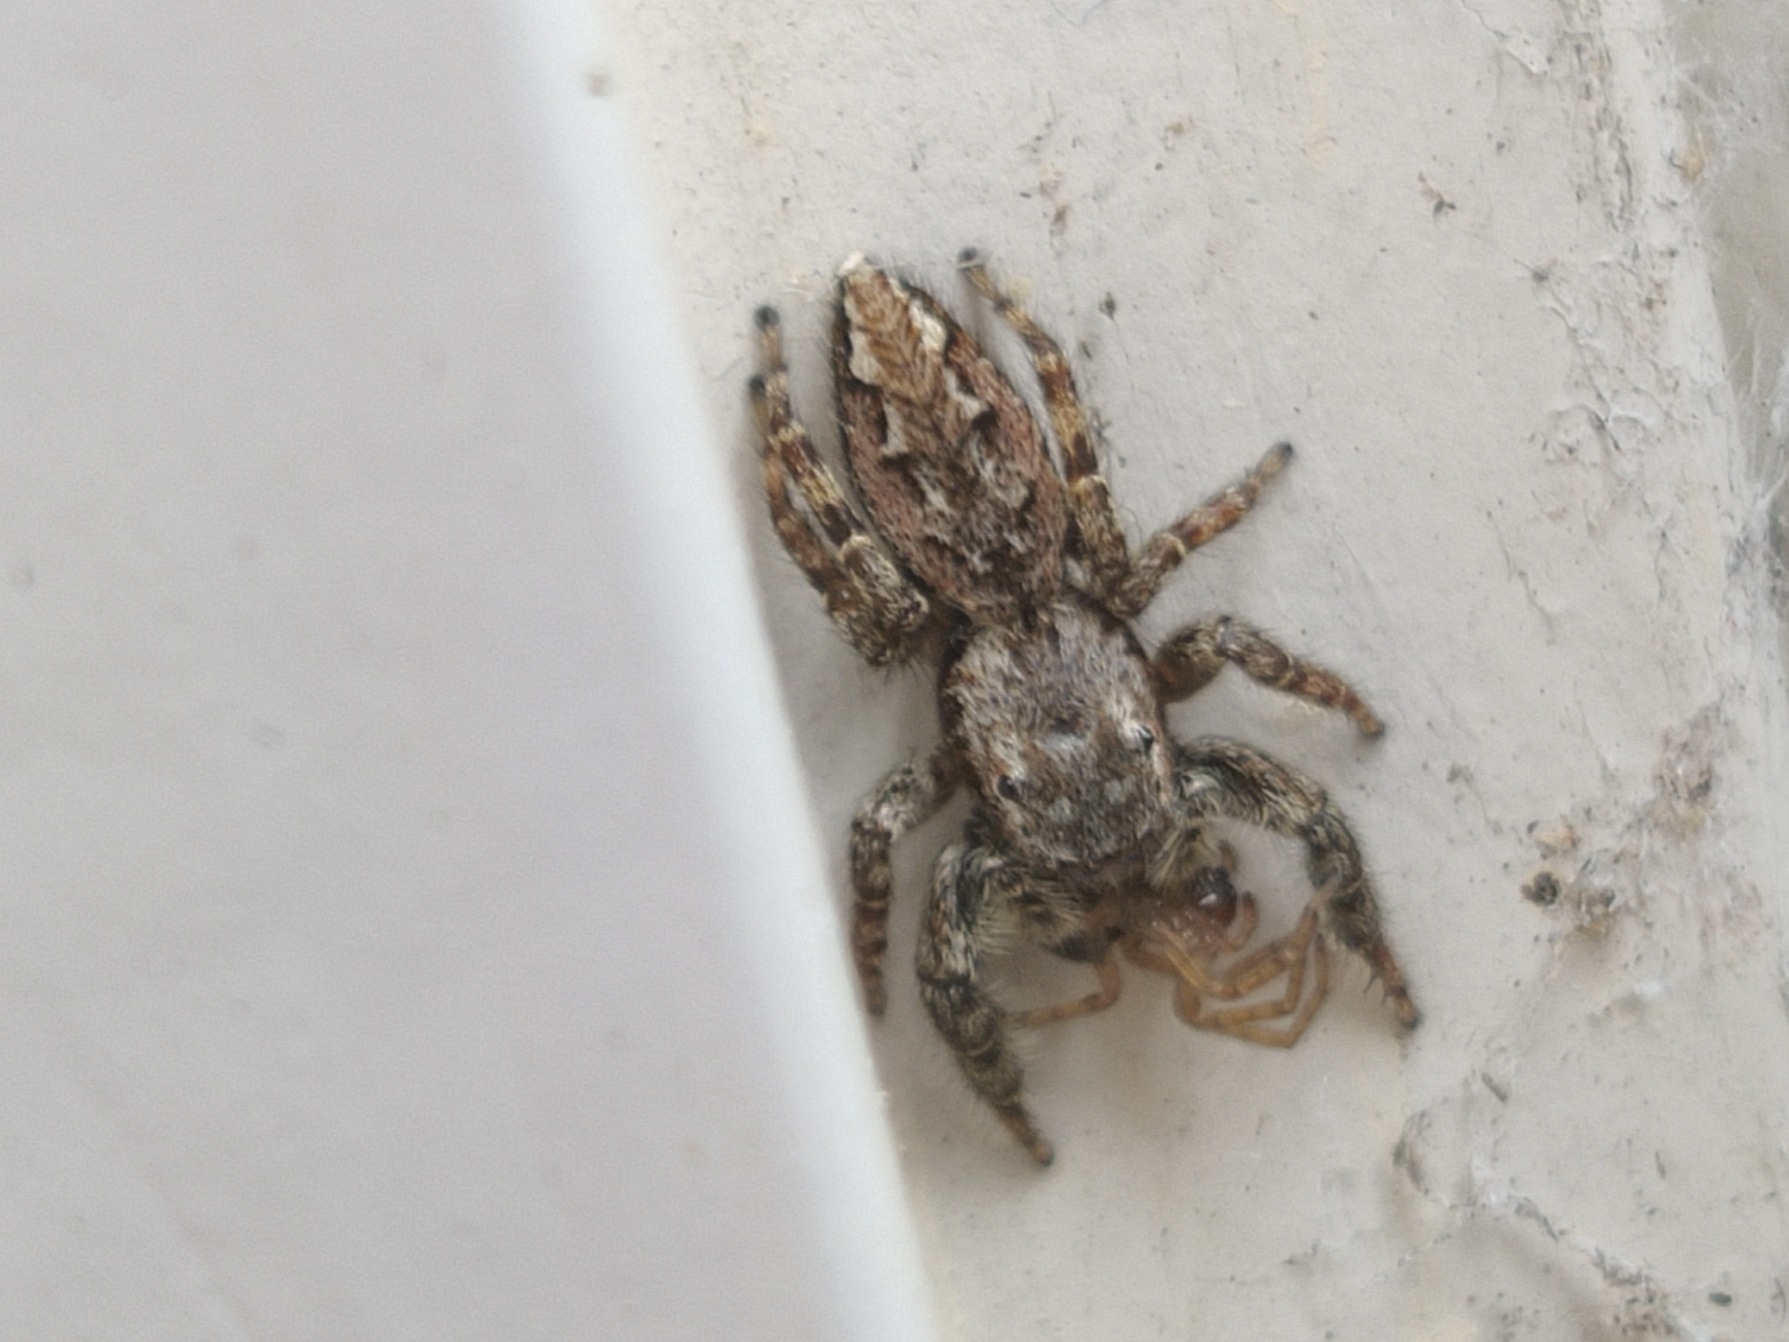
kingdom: Animalia
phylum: Arthropoda
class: Arachnida
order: Araneae
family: Salticidae
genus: Marpissa
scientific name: Marpissa muscosa
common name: Stor springedderkop
